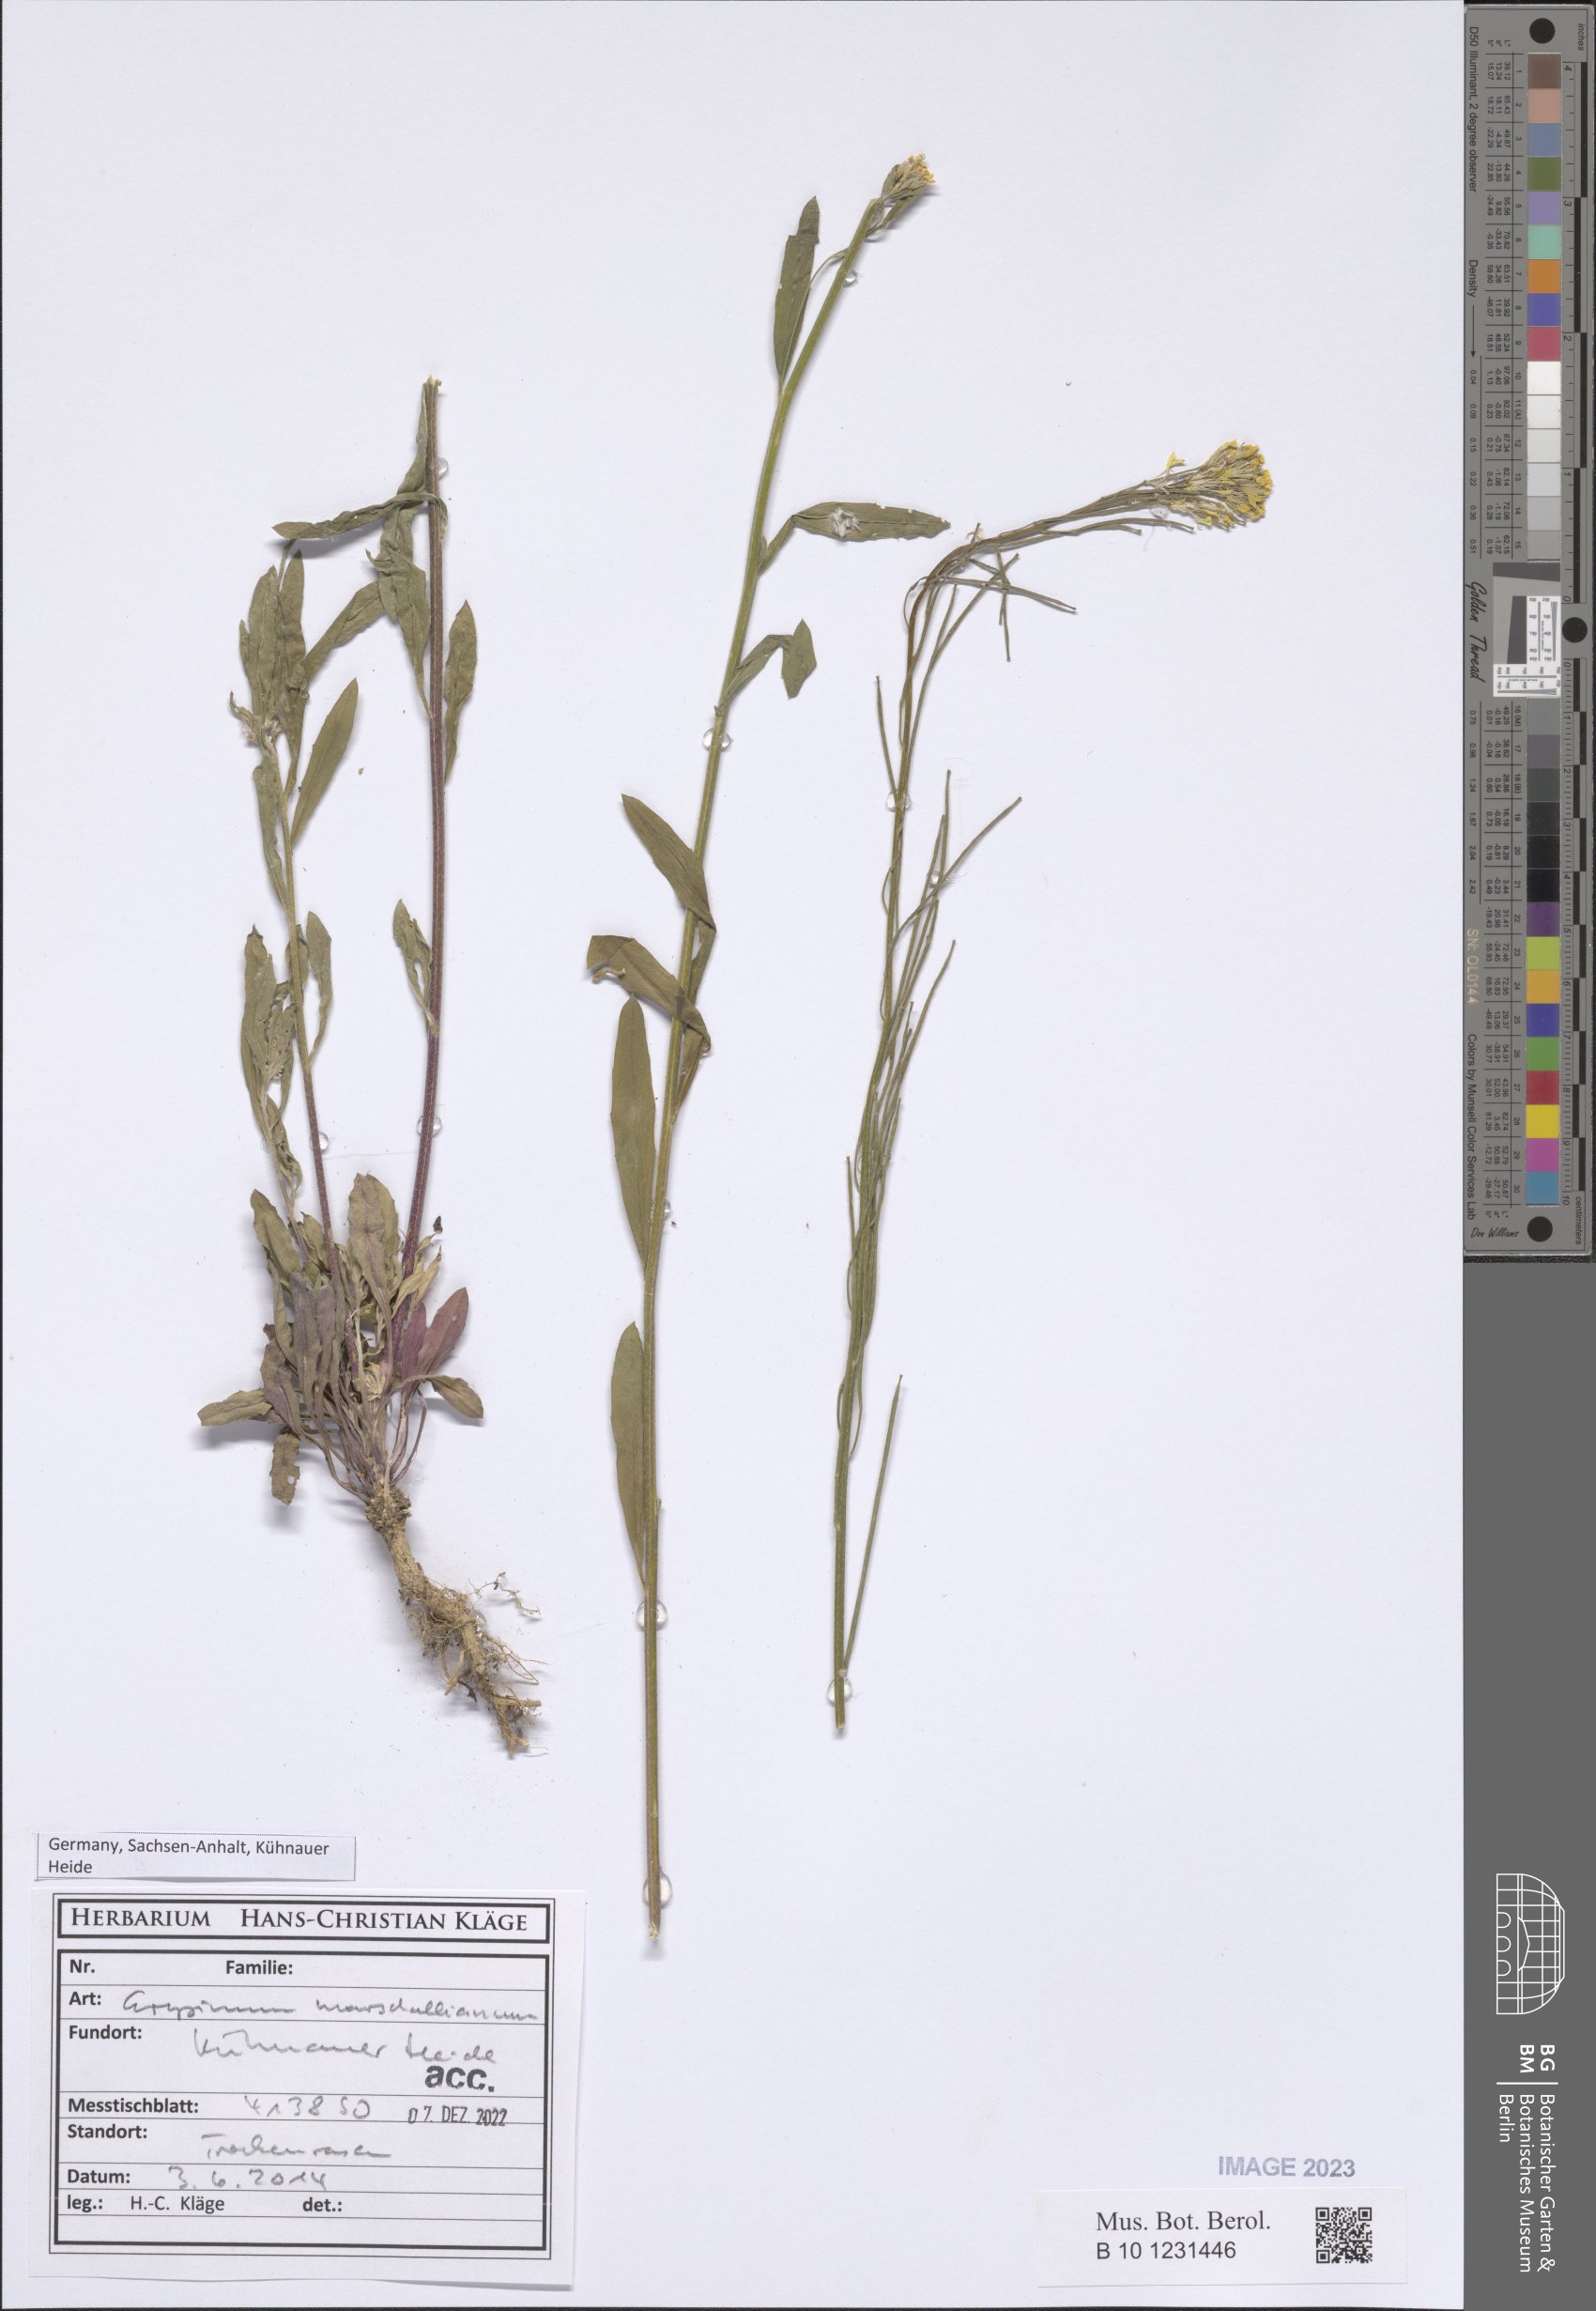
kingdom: Plantae
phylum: Tracheophyta
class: Magnoliopsida
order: Brassicales
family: Brassicaceae
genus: Erysimum
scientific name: Erysimum marschallianum
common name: Hard wallflower
